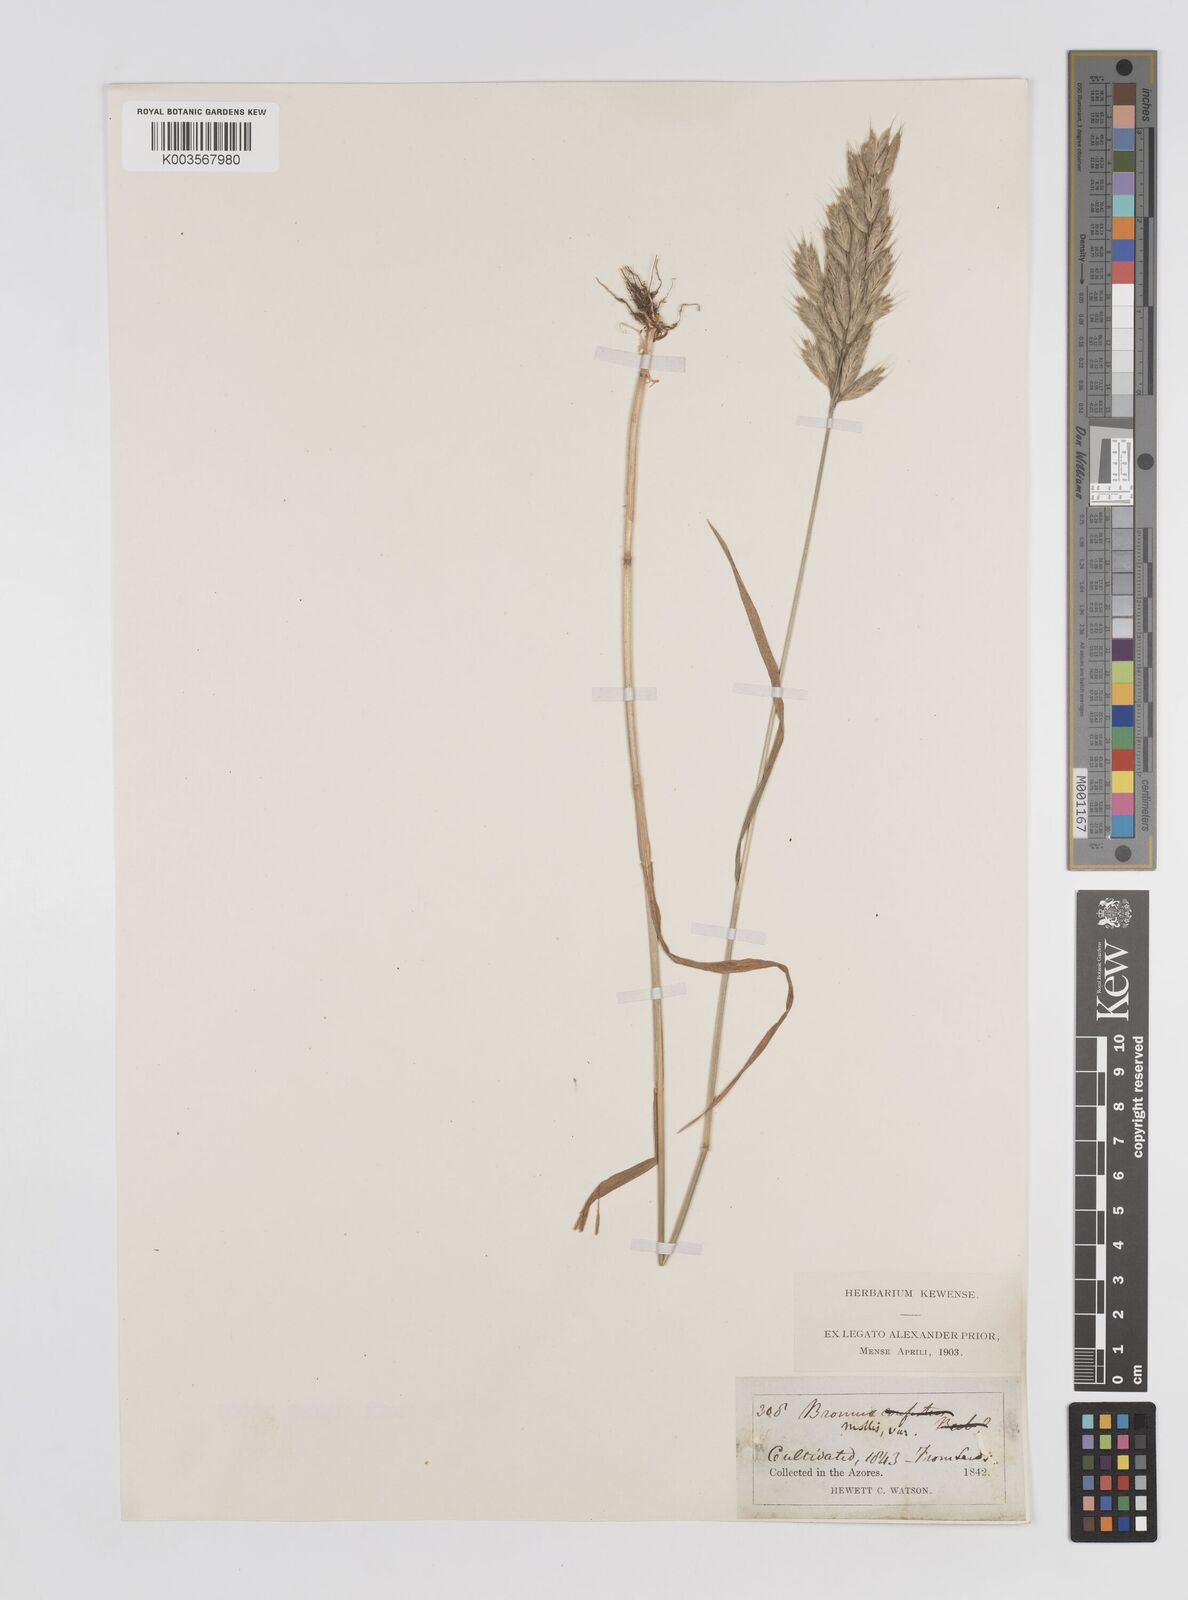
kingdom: Plantae
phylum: Tracheophyta
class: Liliopsida
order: Poales
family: Poaceae
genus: Bromus
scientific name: Bromus
